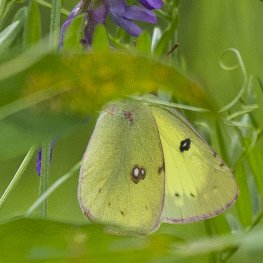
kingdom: Animalia
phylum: Arthropoda
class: Insecta
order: Lepidoptera
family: Pieridae
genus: Colias
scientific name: Colias philodice
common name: Clouded Sulphur
